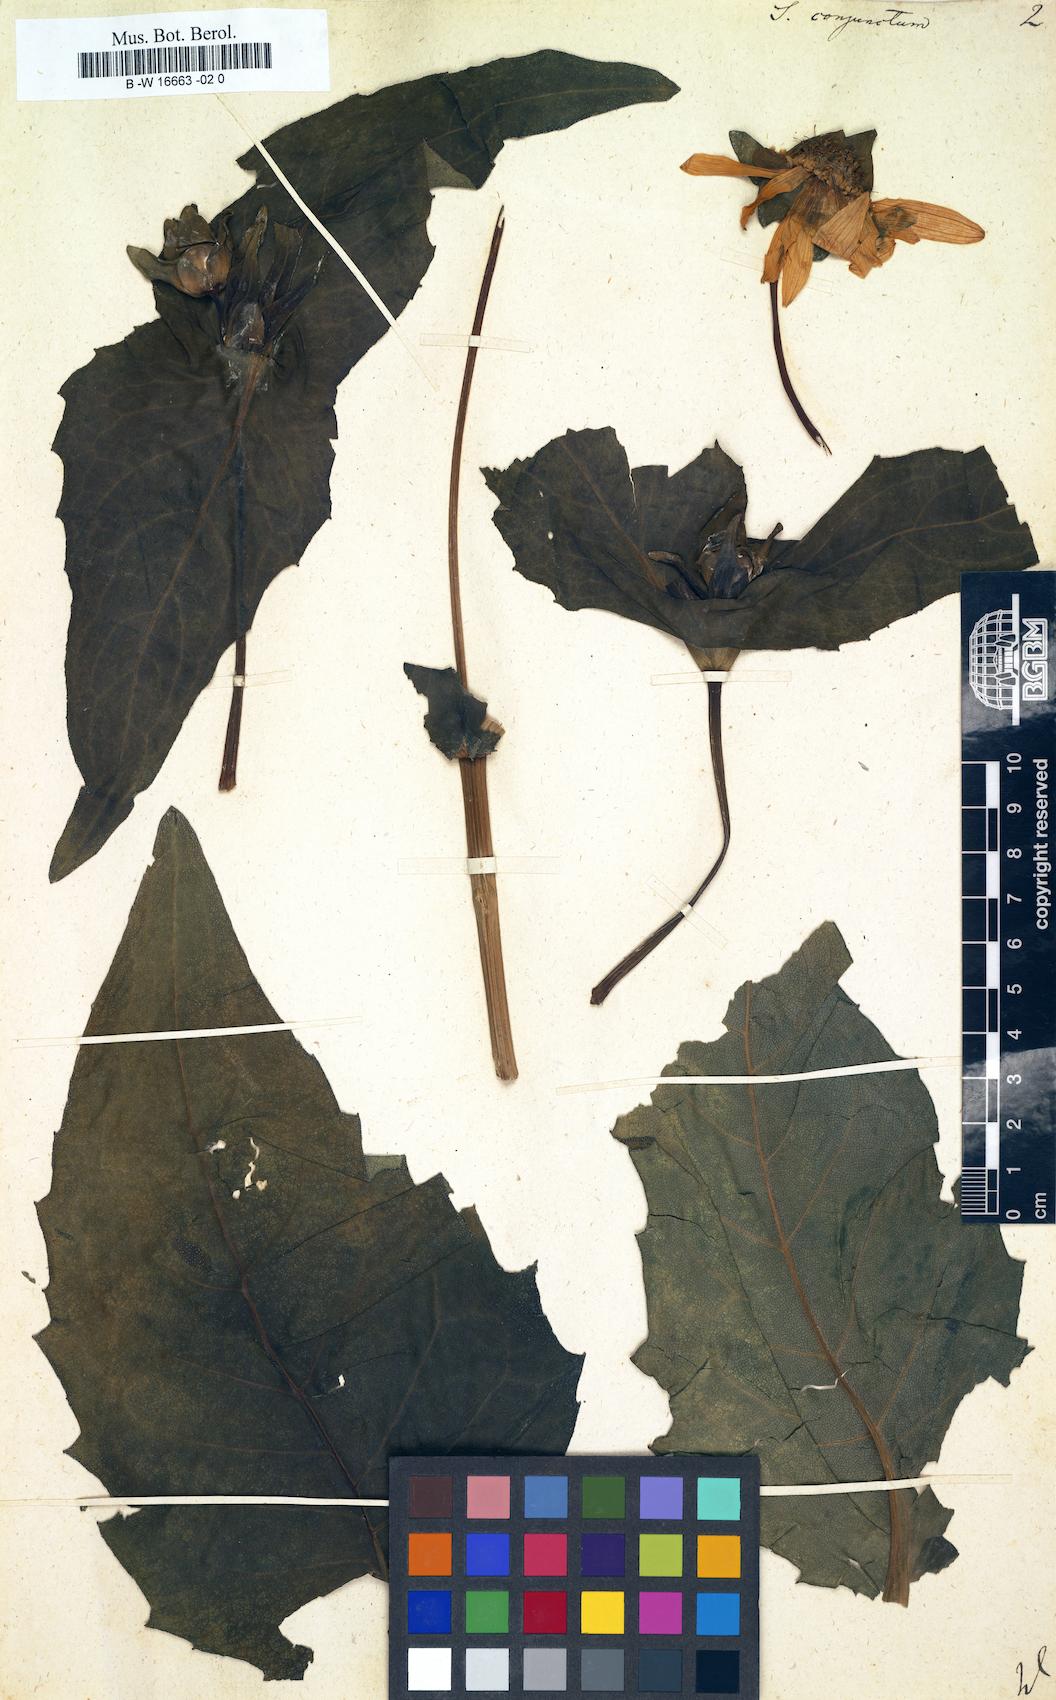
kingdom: Plantae
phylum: Tracheophyta
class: Magnoliopsida
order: Asterales
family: Asteraceae
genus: Silphium
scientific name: Silphium perfoliatum
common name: Cup-plant
